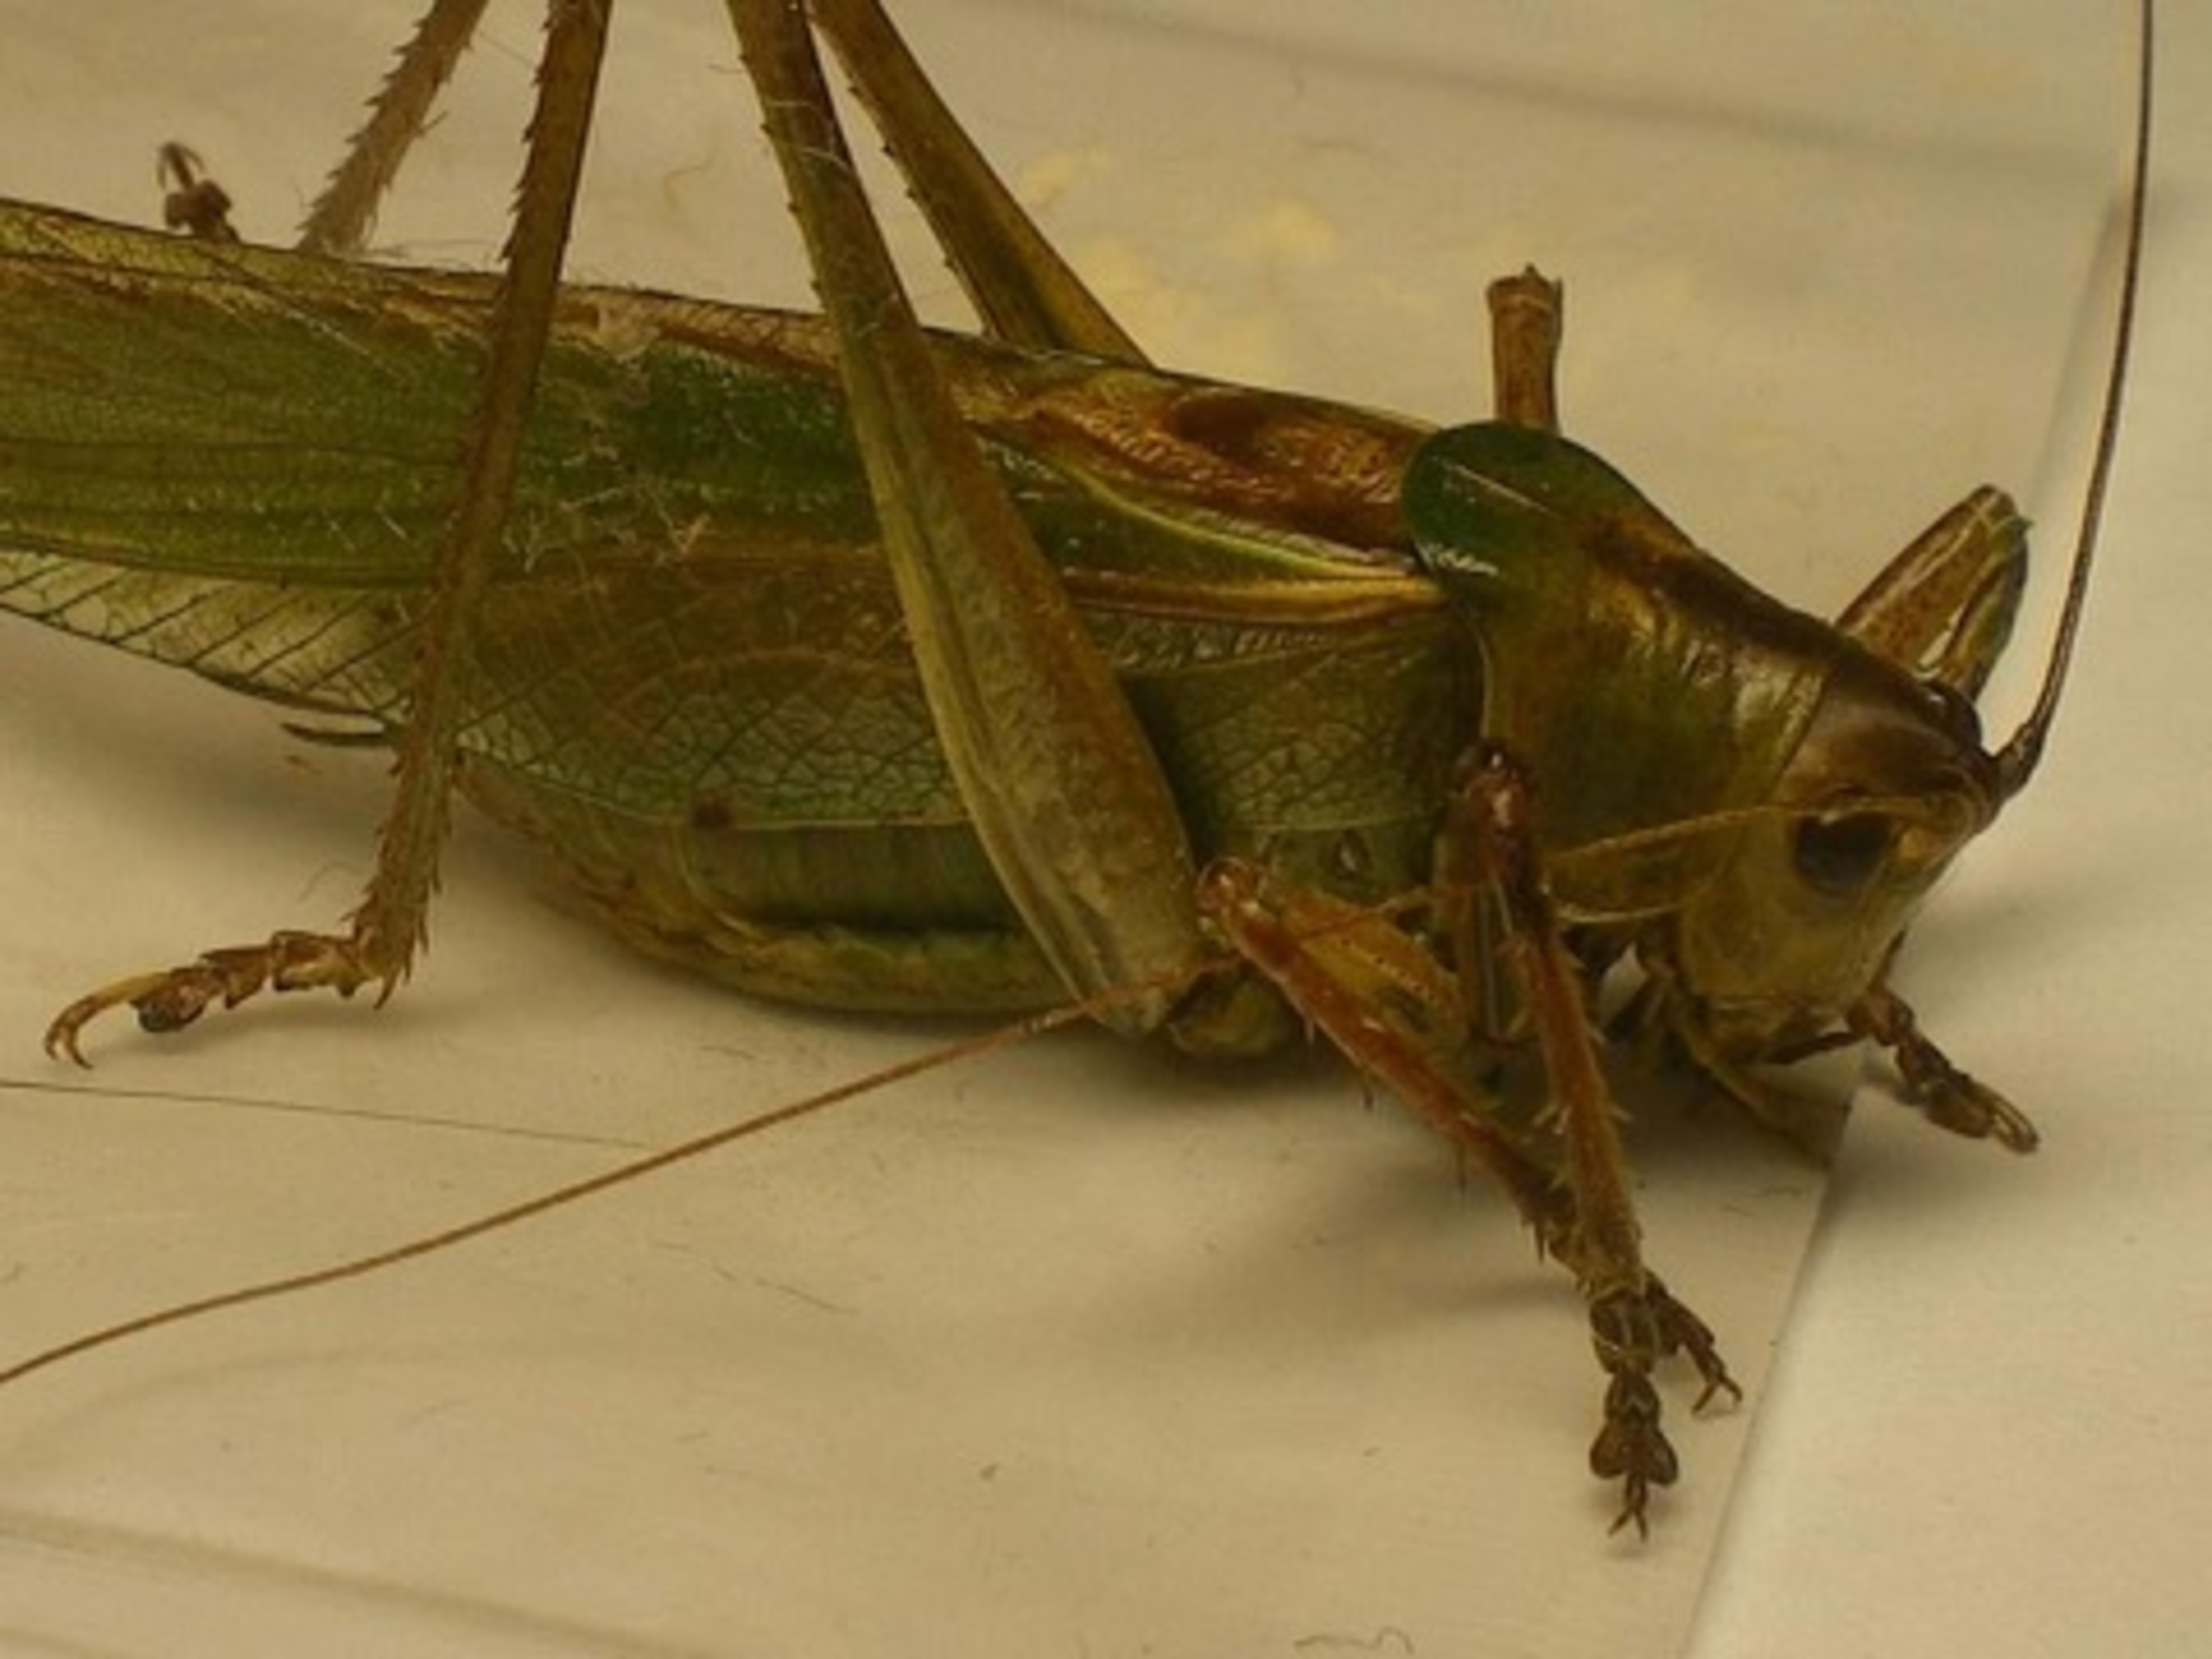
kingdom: Animalia
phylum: Arthropoda
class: Insecta
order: Orthoptera
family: Tettigoniidae
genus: Tettigonia
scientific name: Tettigonia viridissima
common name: Stor grøn løvgræshoppe
